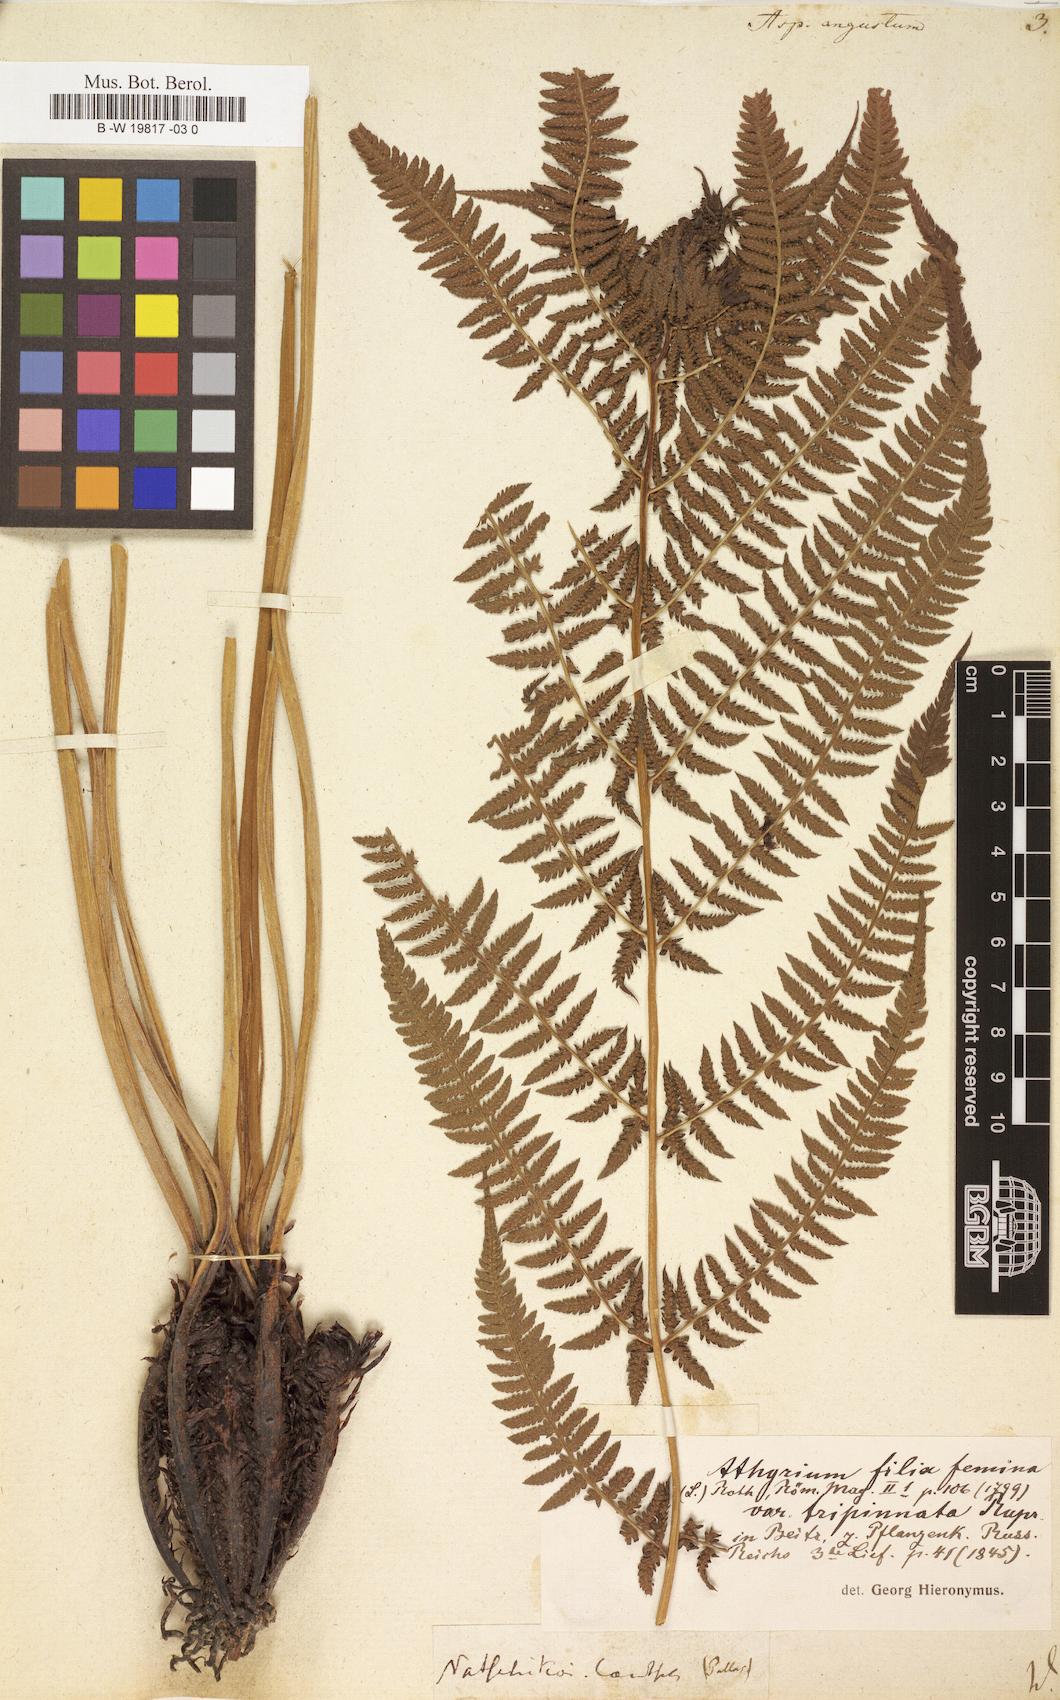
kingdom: Plantae
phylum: Tracheophyta
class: Polypodiopsida
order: Polypodiales
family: Athyriaceae
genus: Athyrium
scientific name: Athyrium angustum
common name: Northern lady fern
